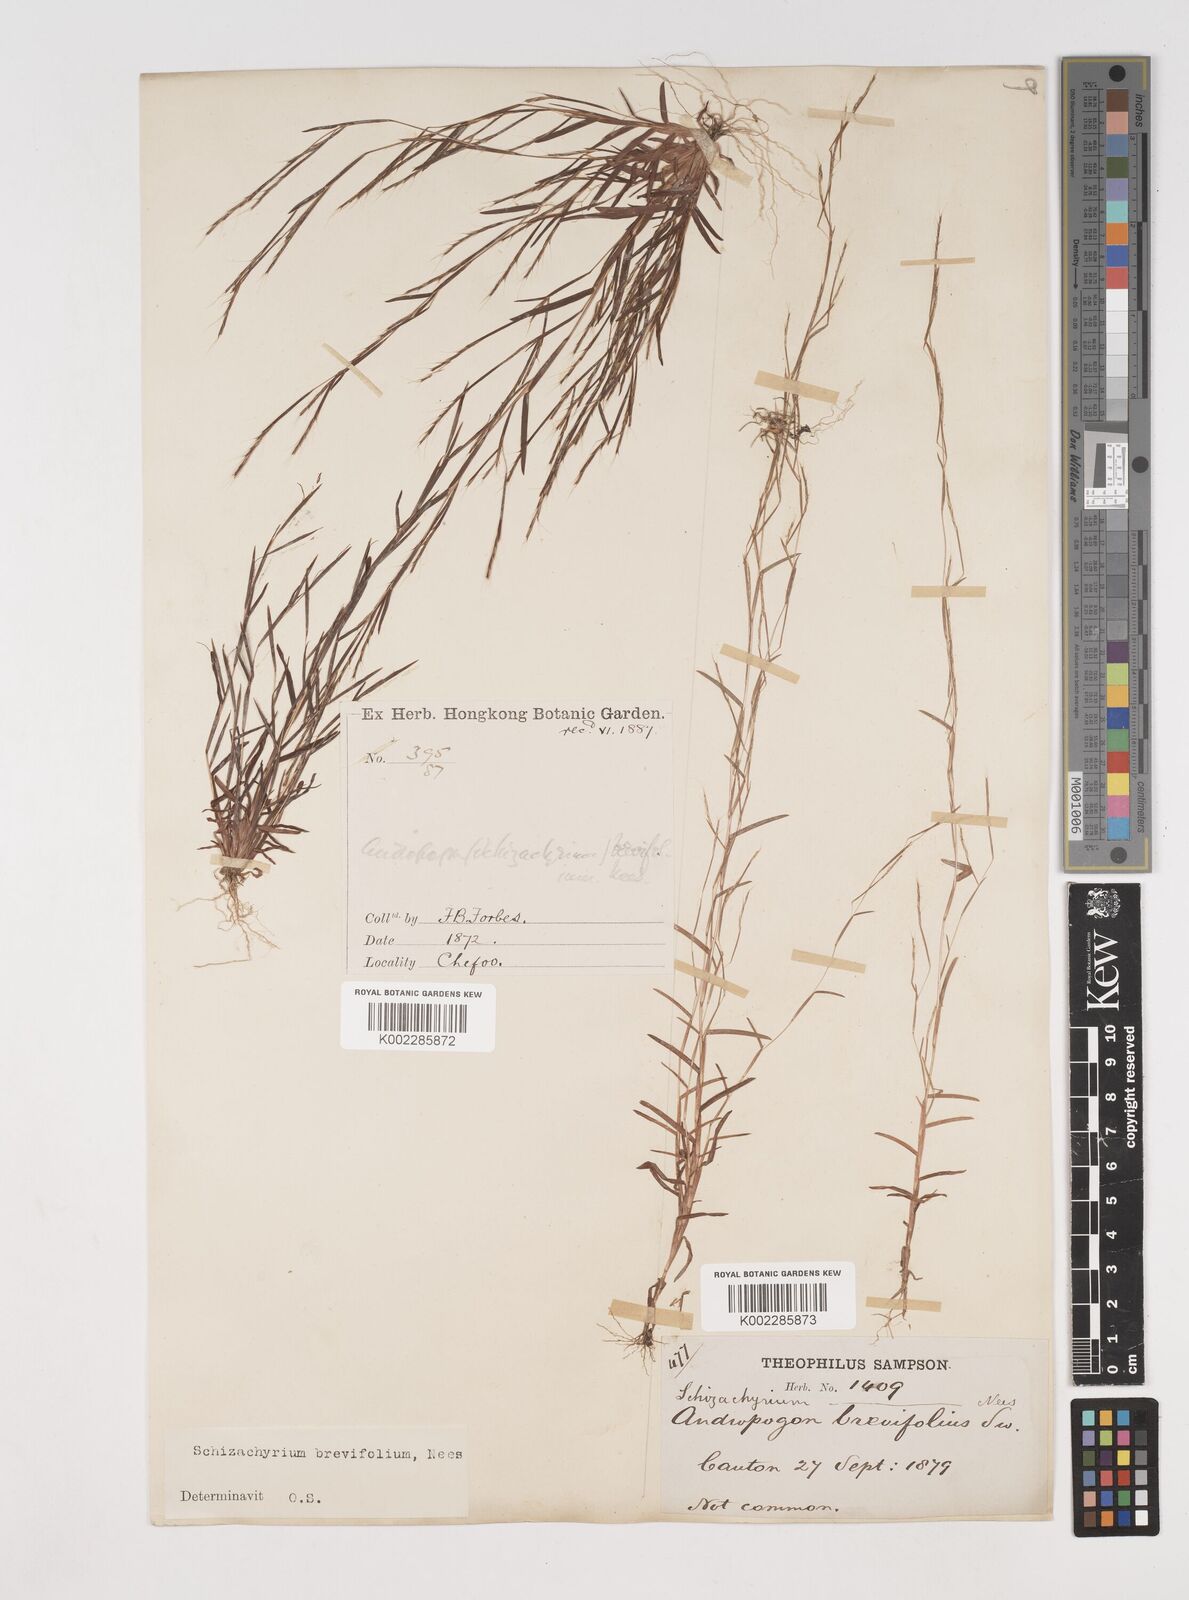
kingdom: Plantae
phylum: Tracheophyta
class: Liliopsida
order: Poales
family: Poaceae
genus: Schizachyrium
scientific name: Schizachyrium brevifolium
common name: Serillo dulce
